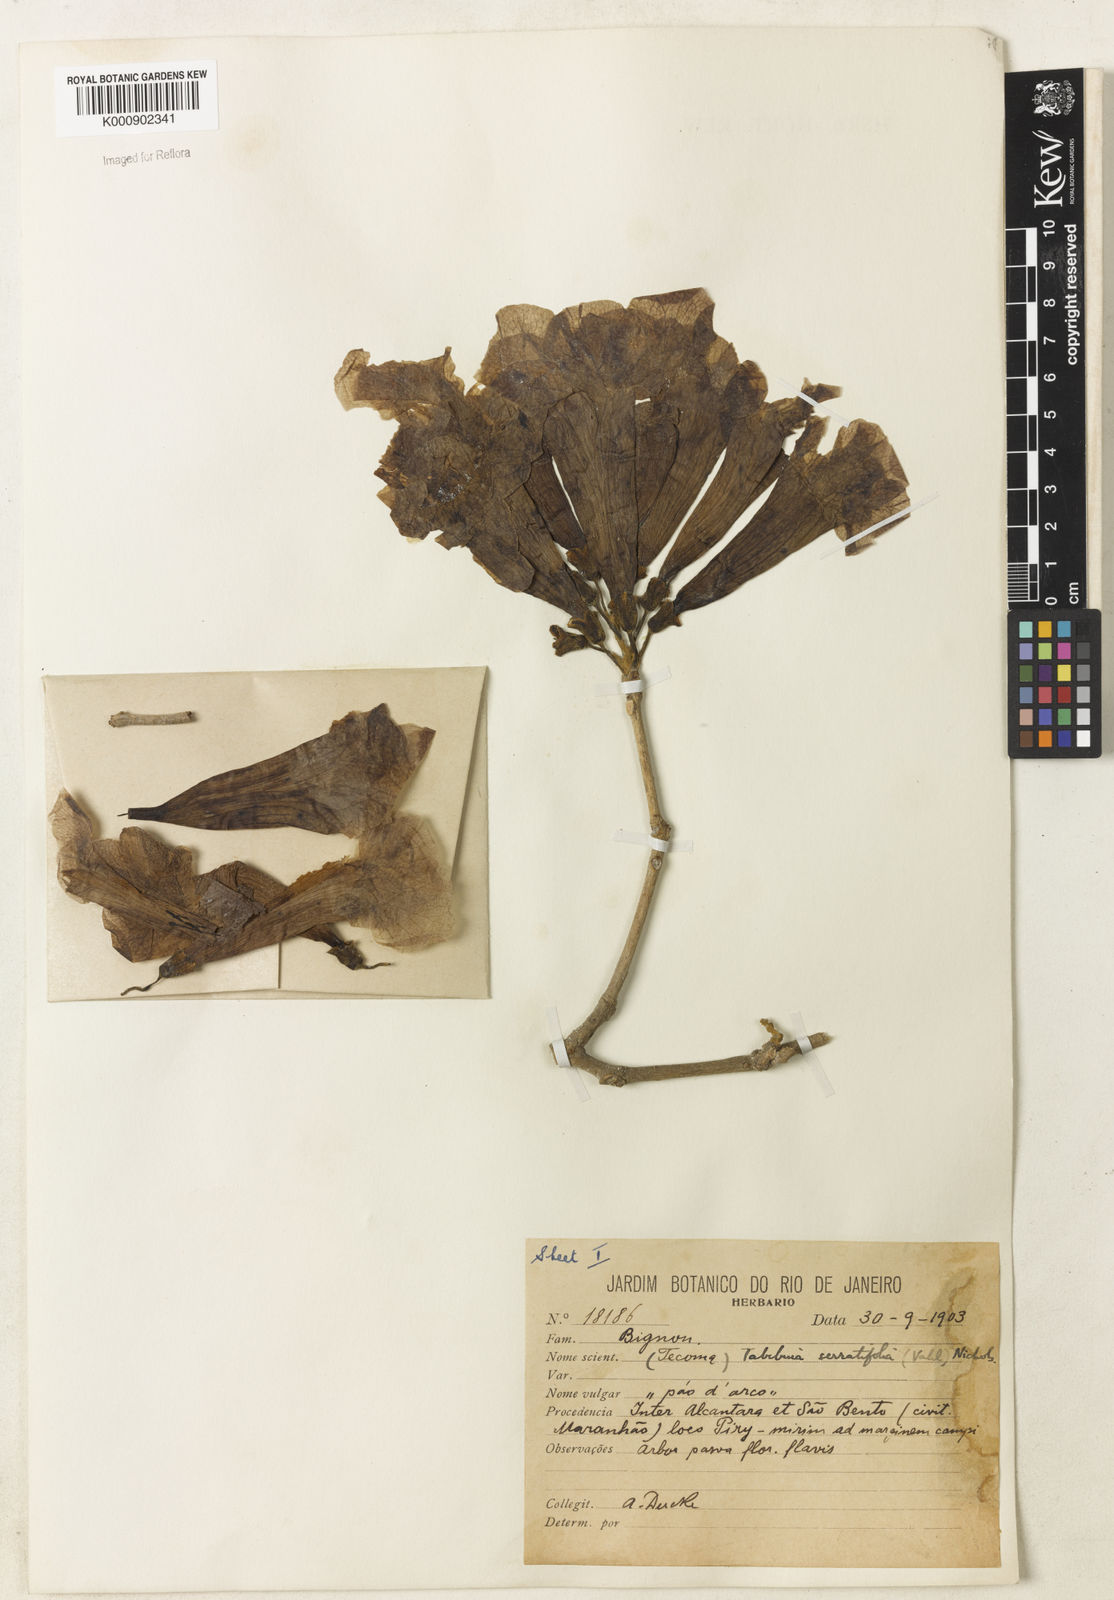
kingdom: Plantae
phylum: Tracheophyta
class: Magnoliopsida
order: Lamiales
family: Bignoniaceae
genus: Handroanthus
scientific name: Handroanthus serratifolius
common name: Yellow ipe
